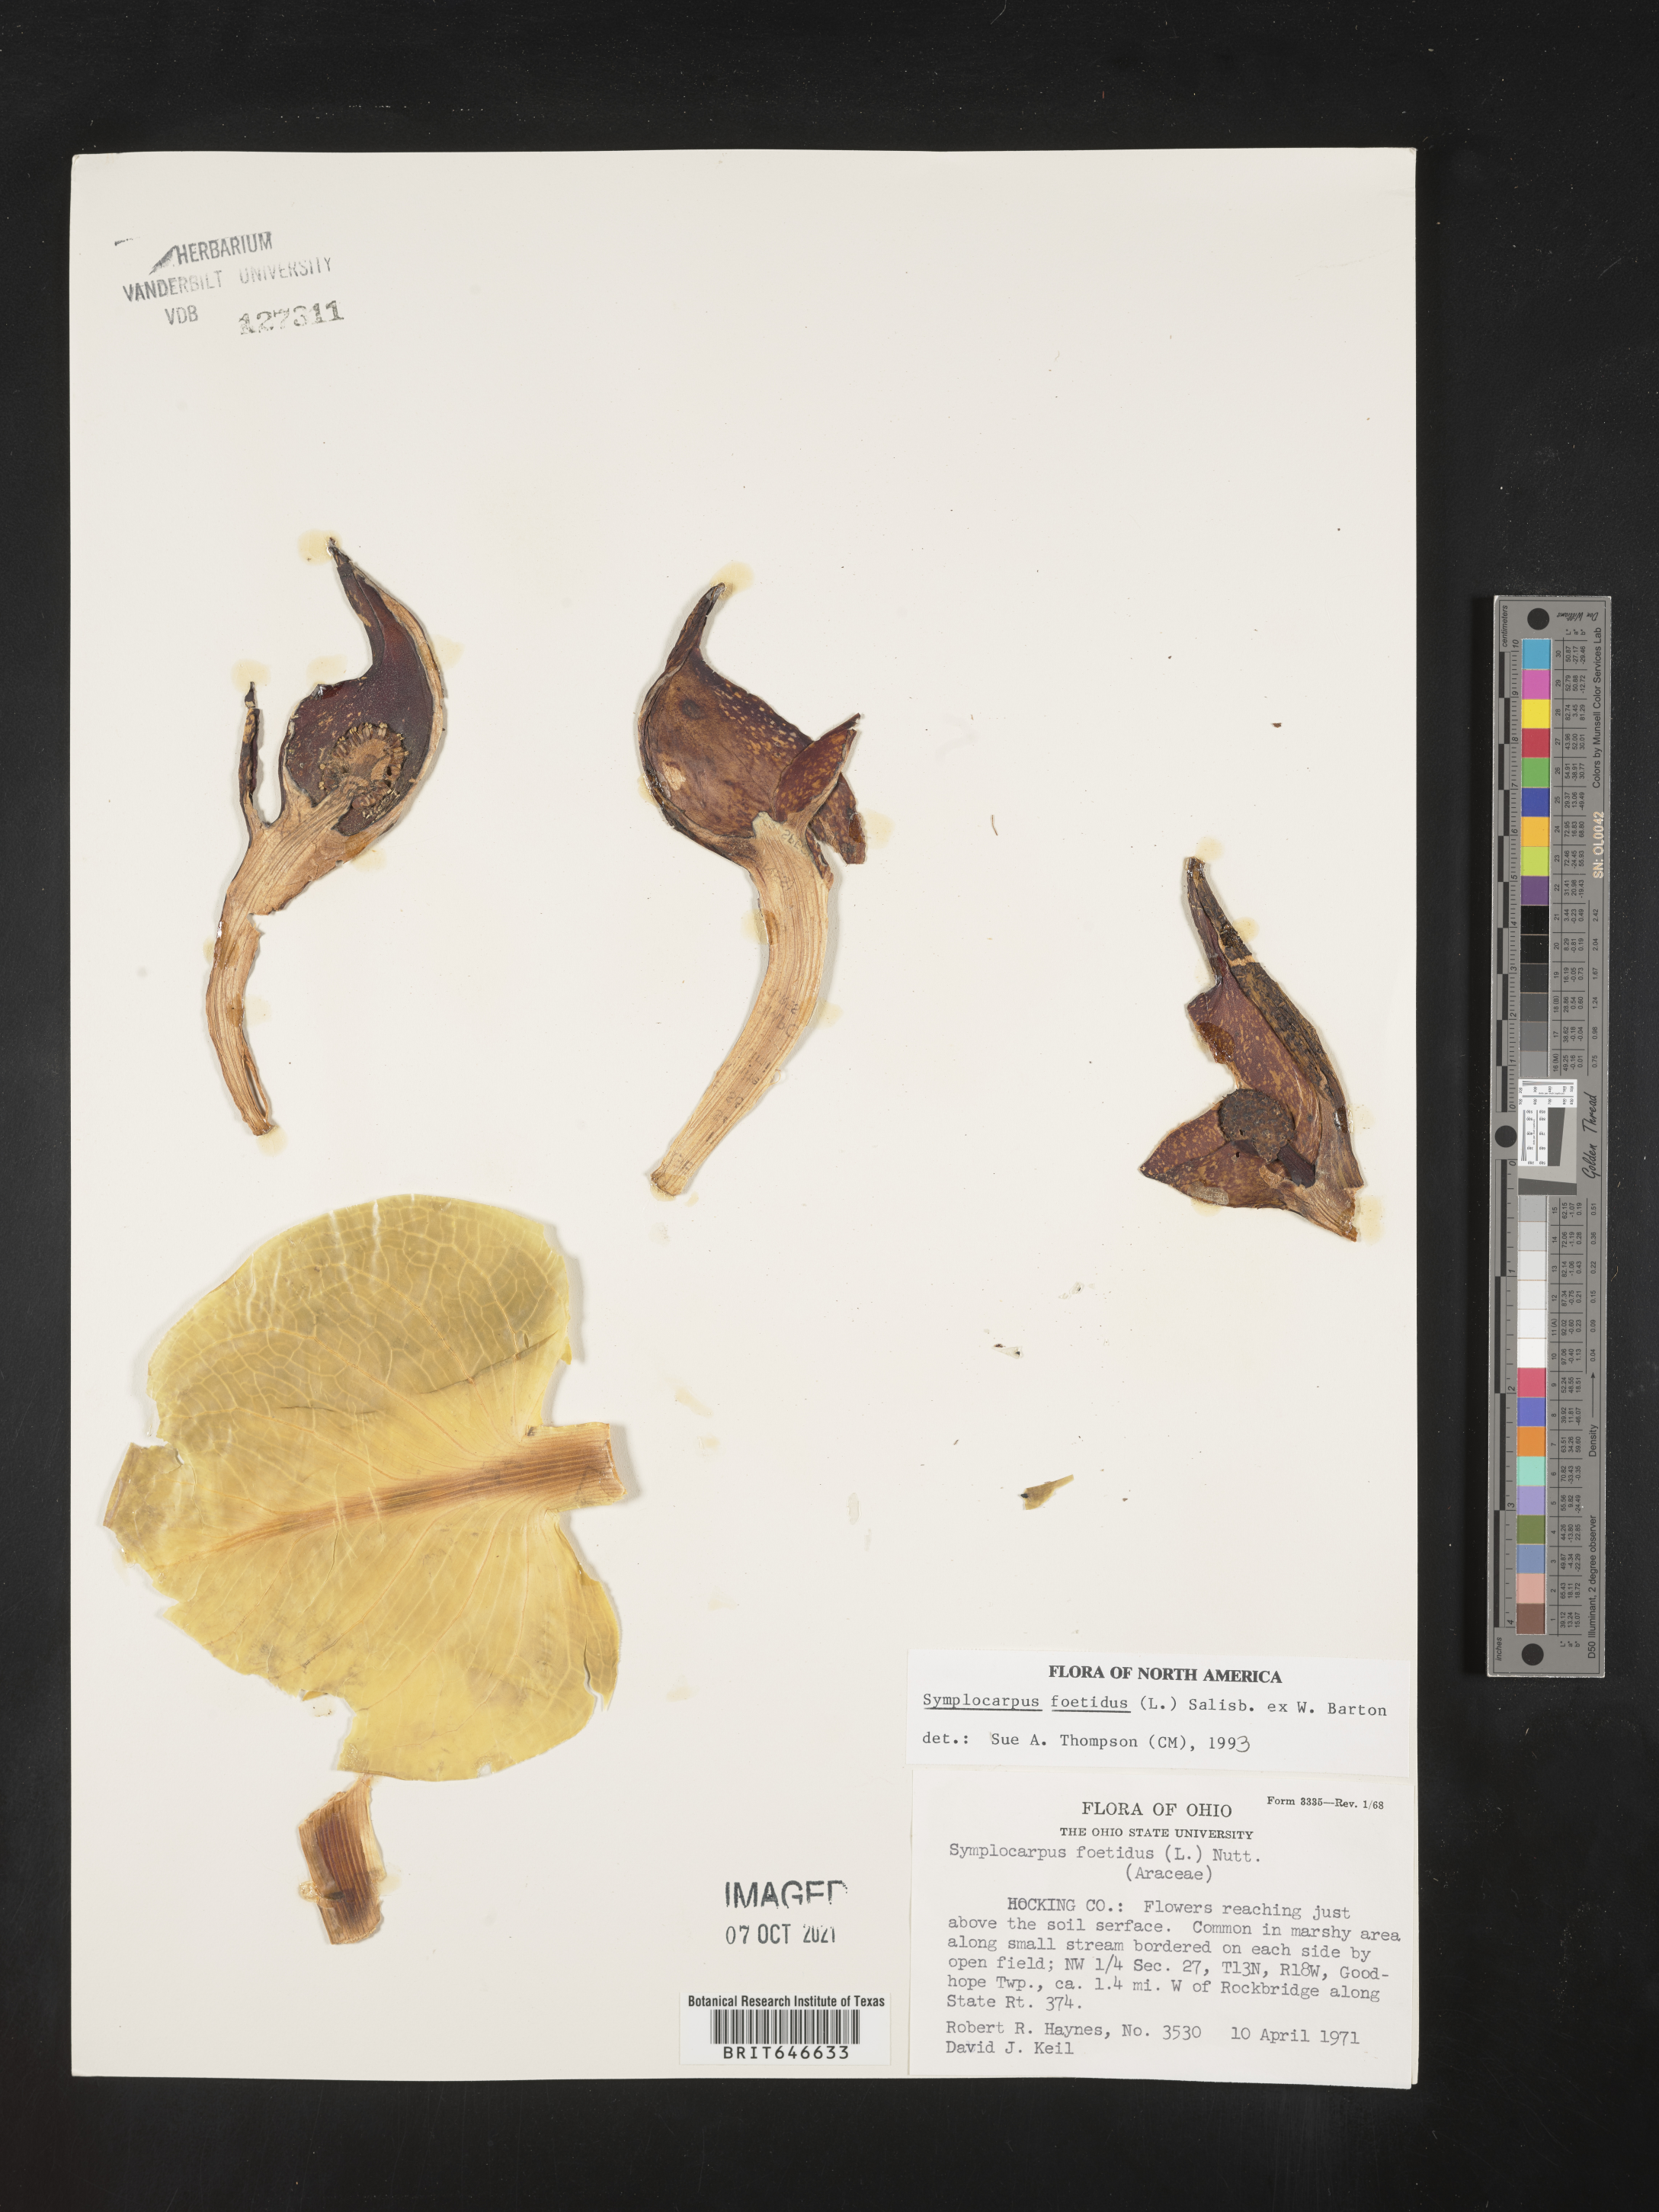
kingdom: Plantae
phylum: Tracheophyta
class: Liliopsida
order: Alismatales
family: Araceae
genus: Symplocarpus
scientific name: Symplocarpus foetidus
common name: Eastern skunk cabbage
